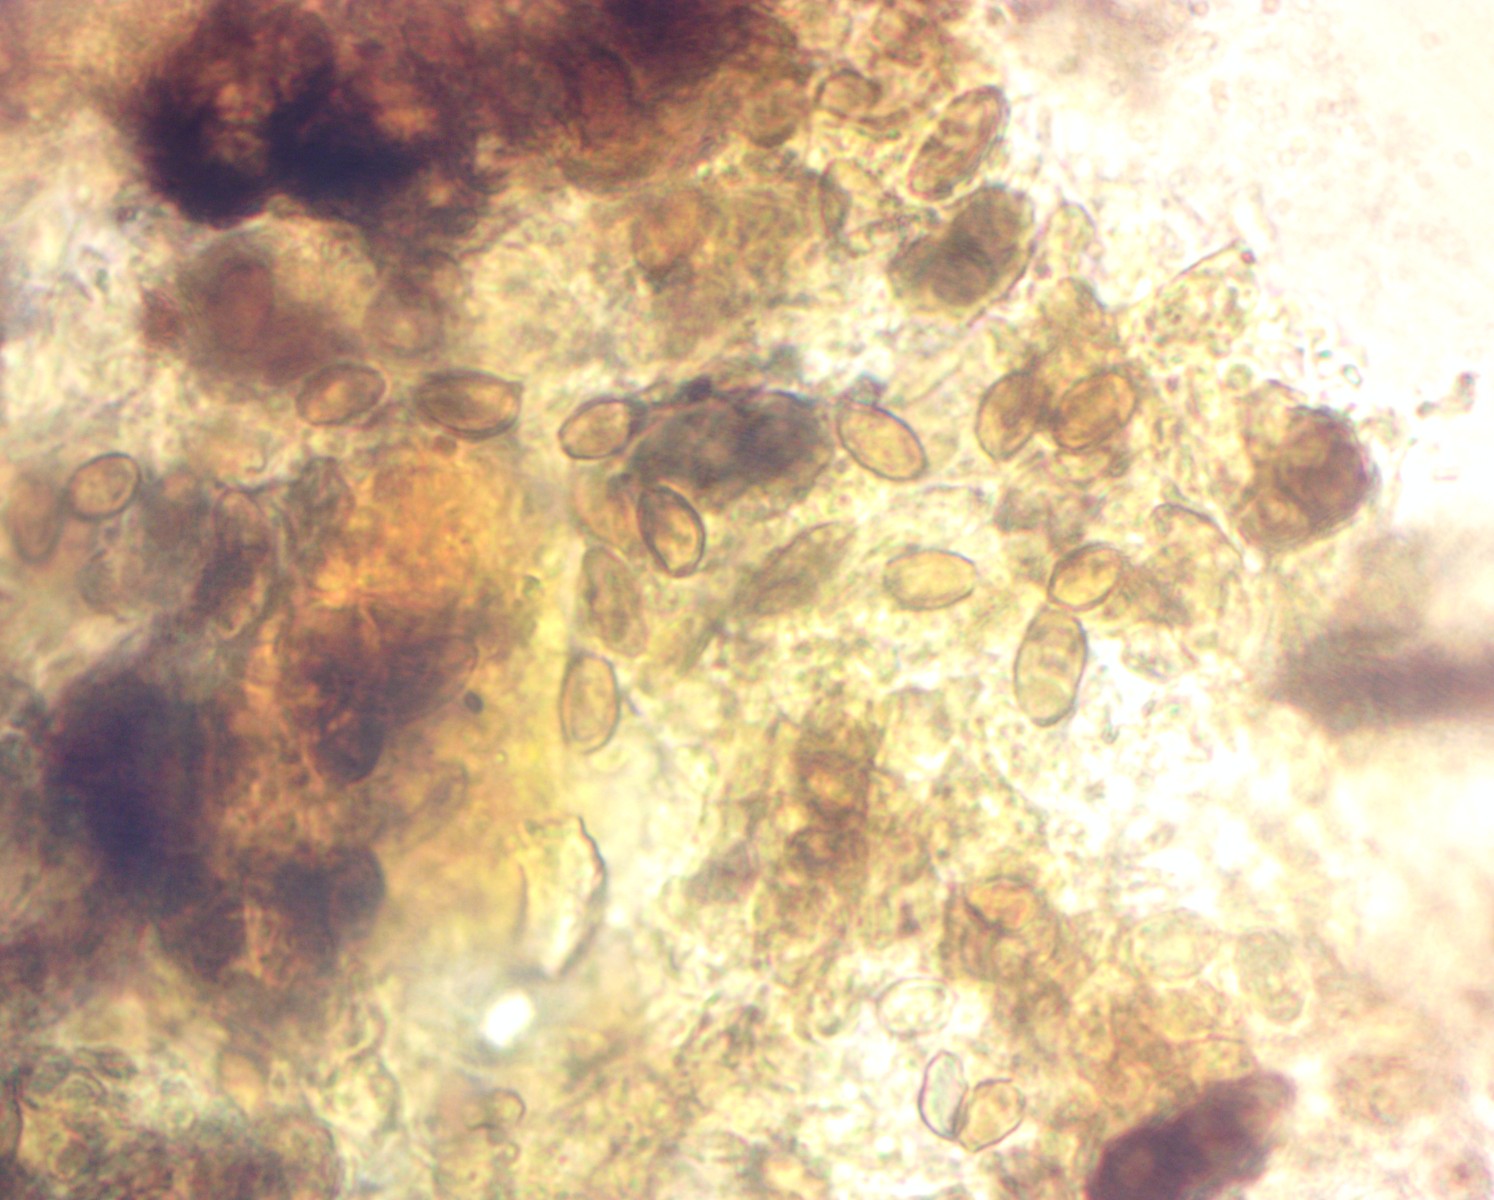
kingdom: Fungi
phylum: Ascomycota
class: Leotiomycetes
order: Helotiales
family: Cenangiaceae
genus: Trochila
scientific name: Trochila laurocerasi
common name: kirsebær-lågskive
